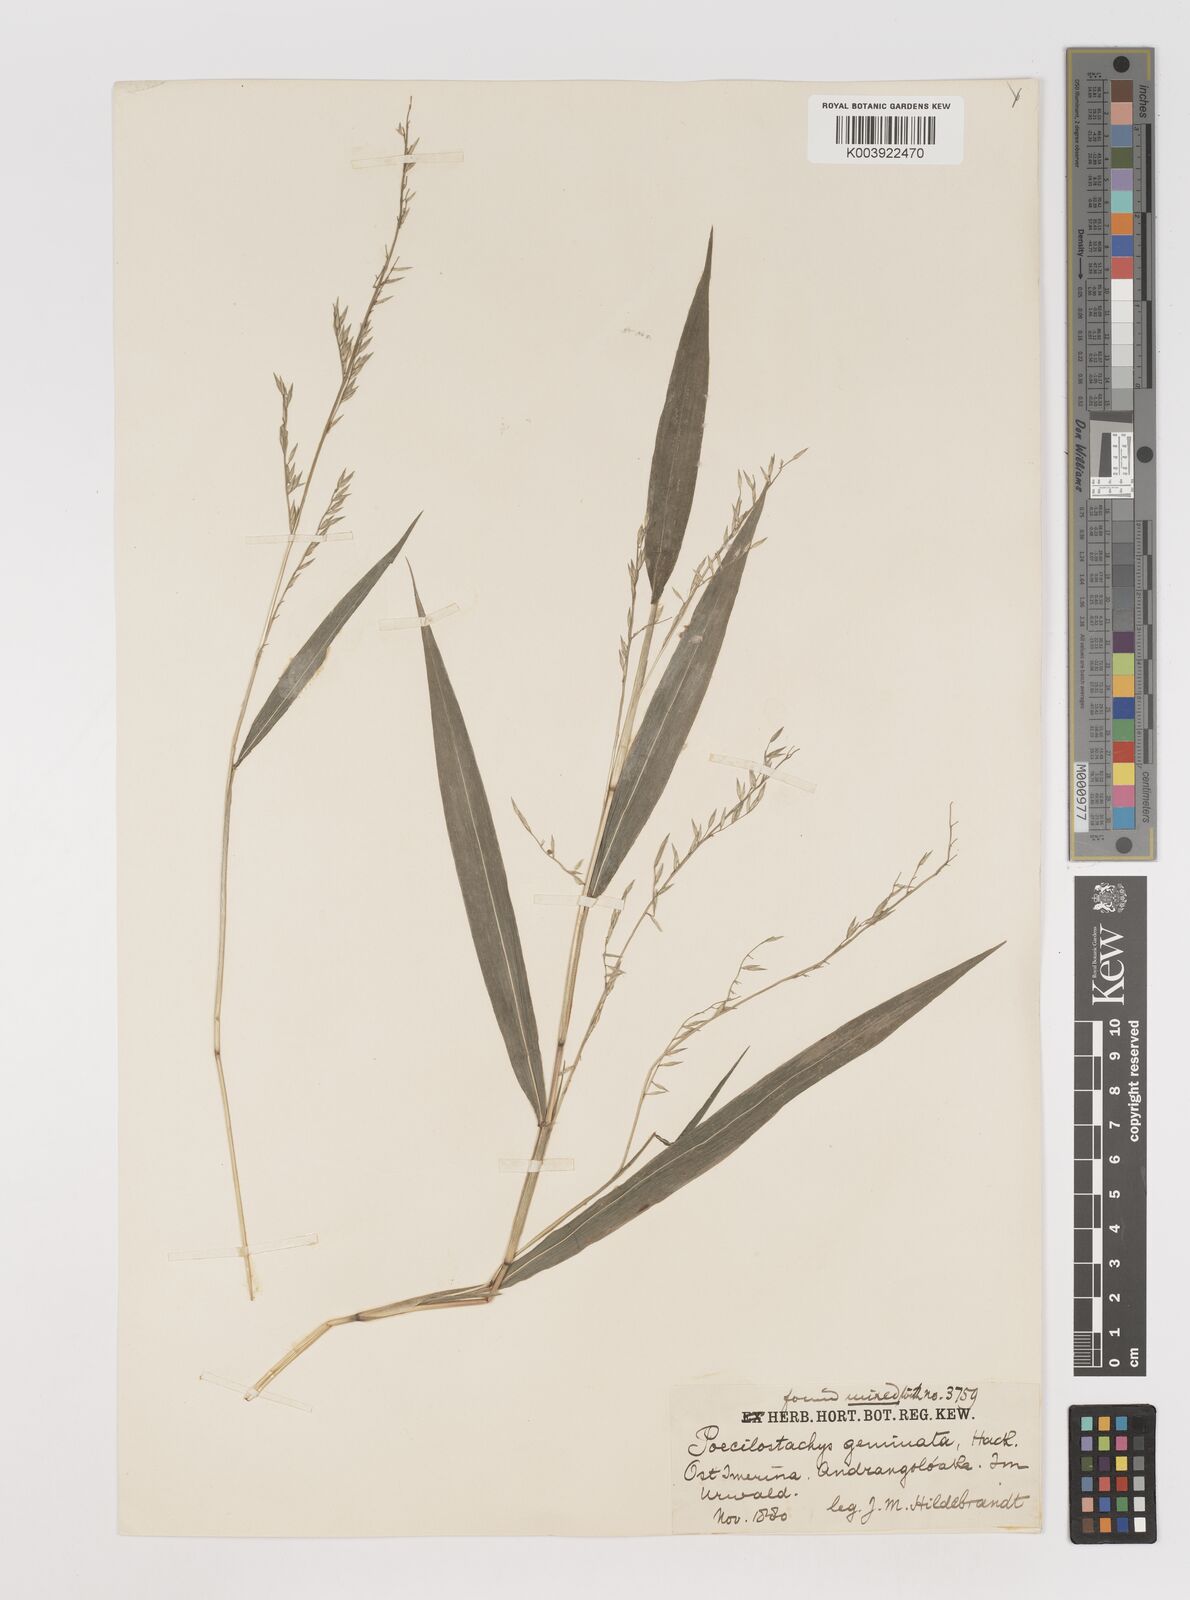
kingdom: Plantae
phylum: Tracheophyta
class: Liliopsida
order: Poales
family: Poaceae
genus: Poecilostachys
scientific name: Poecilostachys geminata
